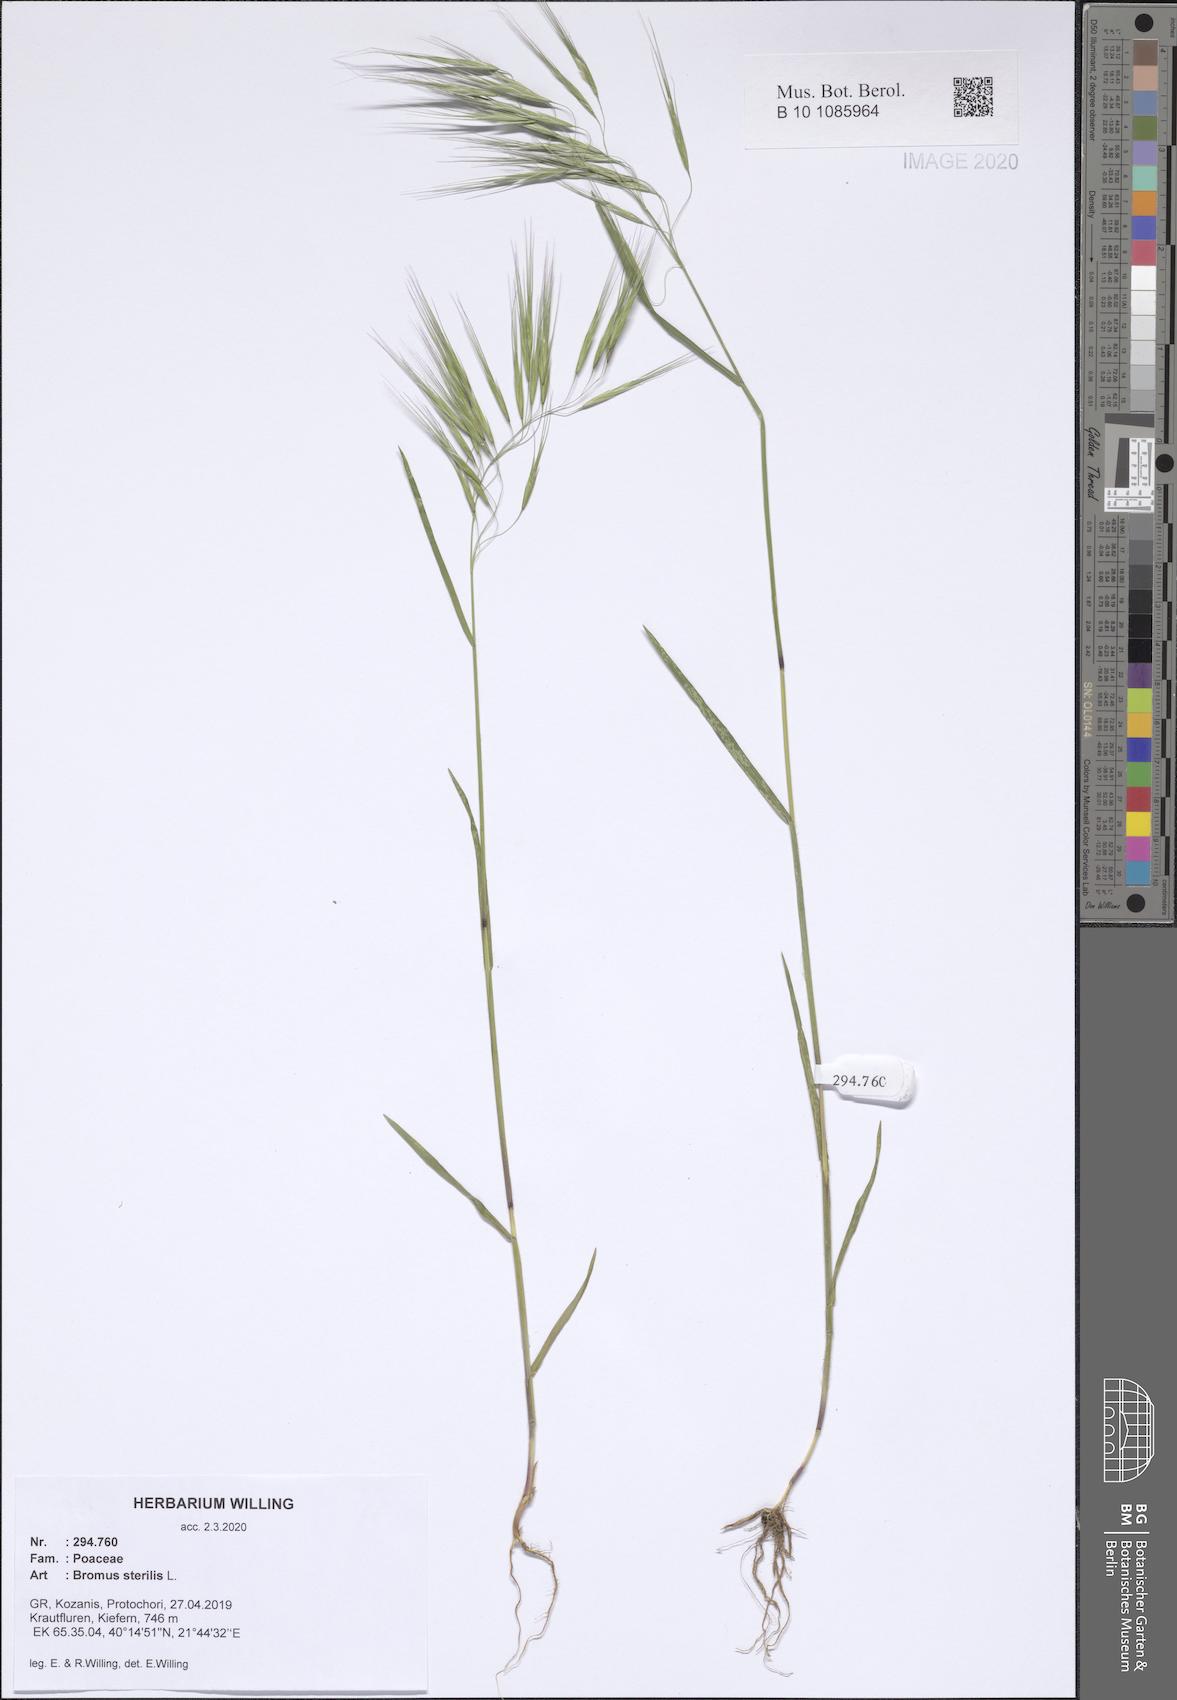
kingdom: Plantae
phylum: Tracheophyta
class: Liliopsida
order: Poales
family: Poaceae
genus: Bromus
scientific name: Bromus sterilis
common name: Poverty brome
